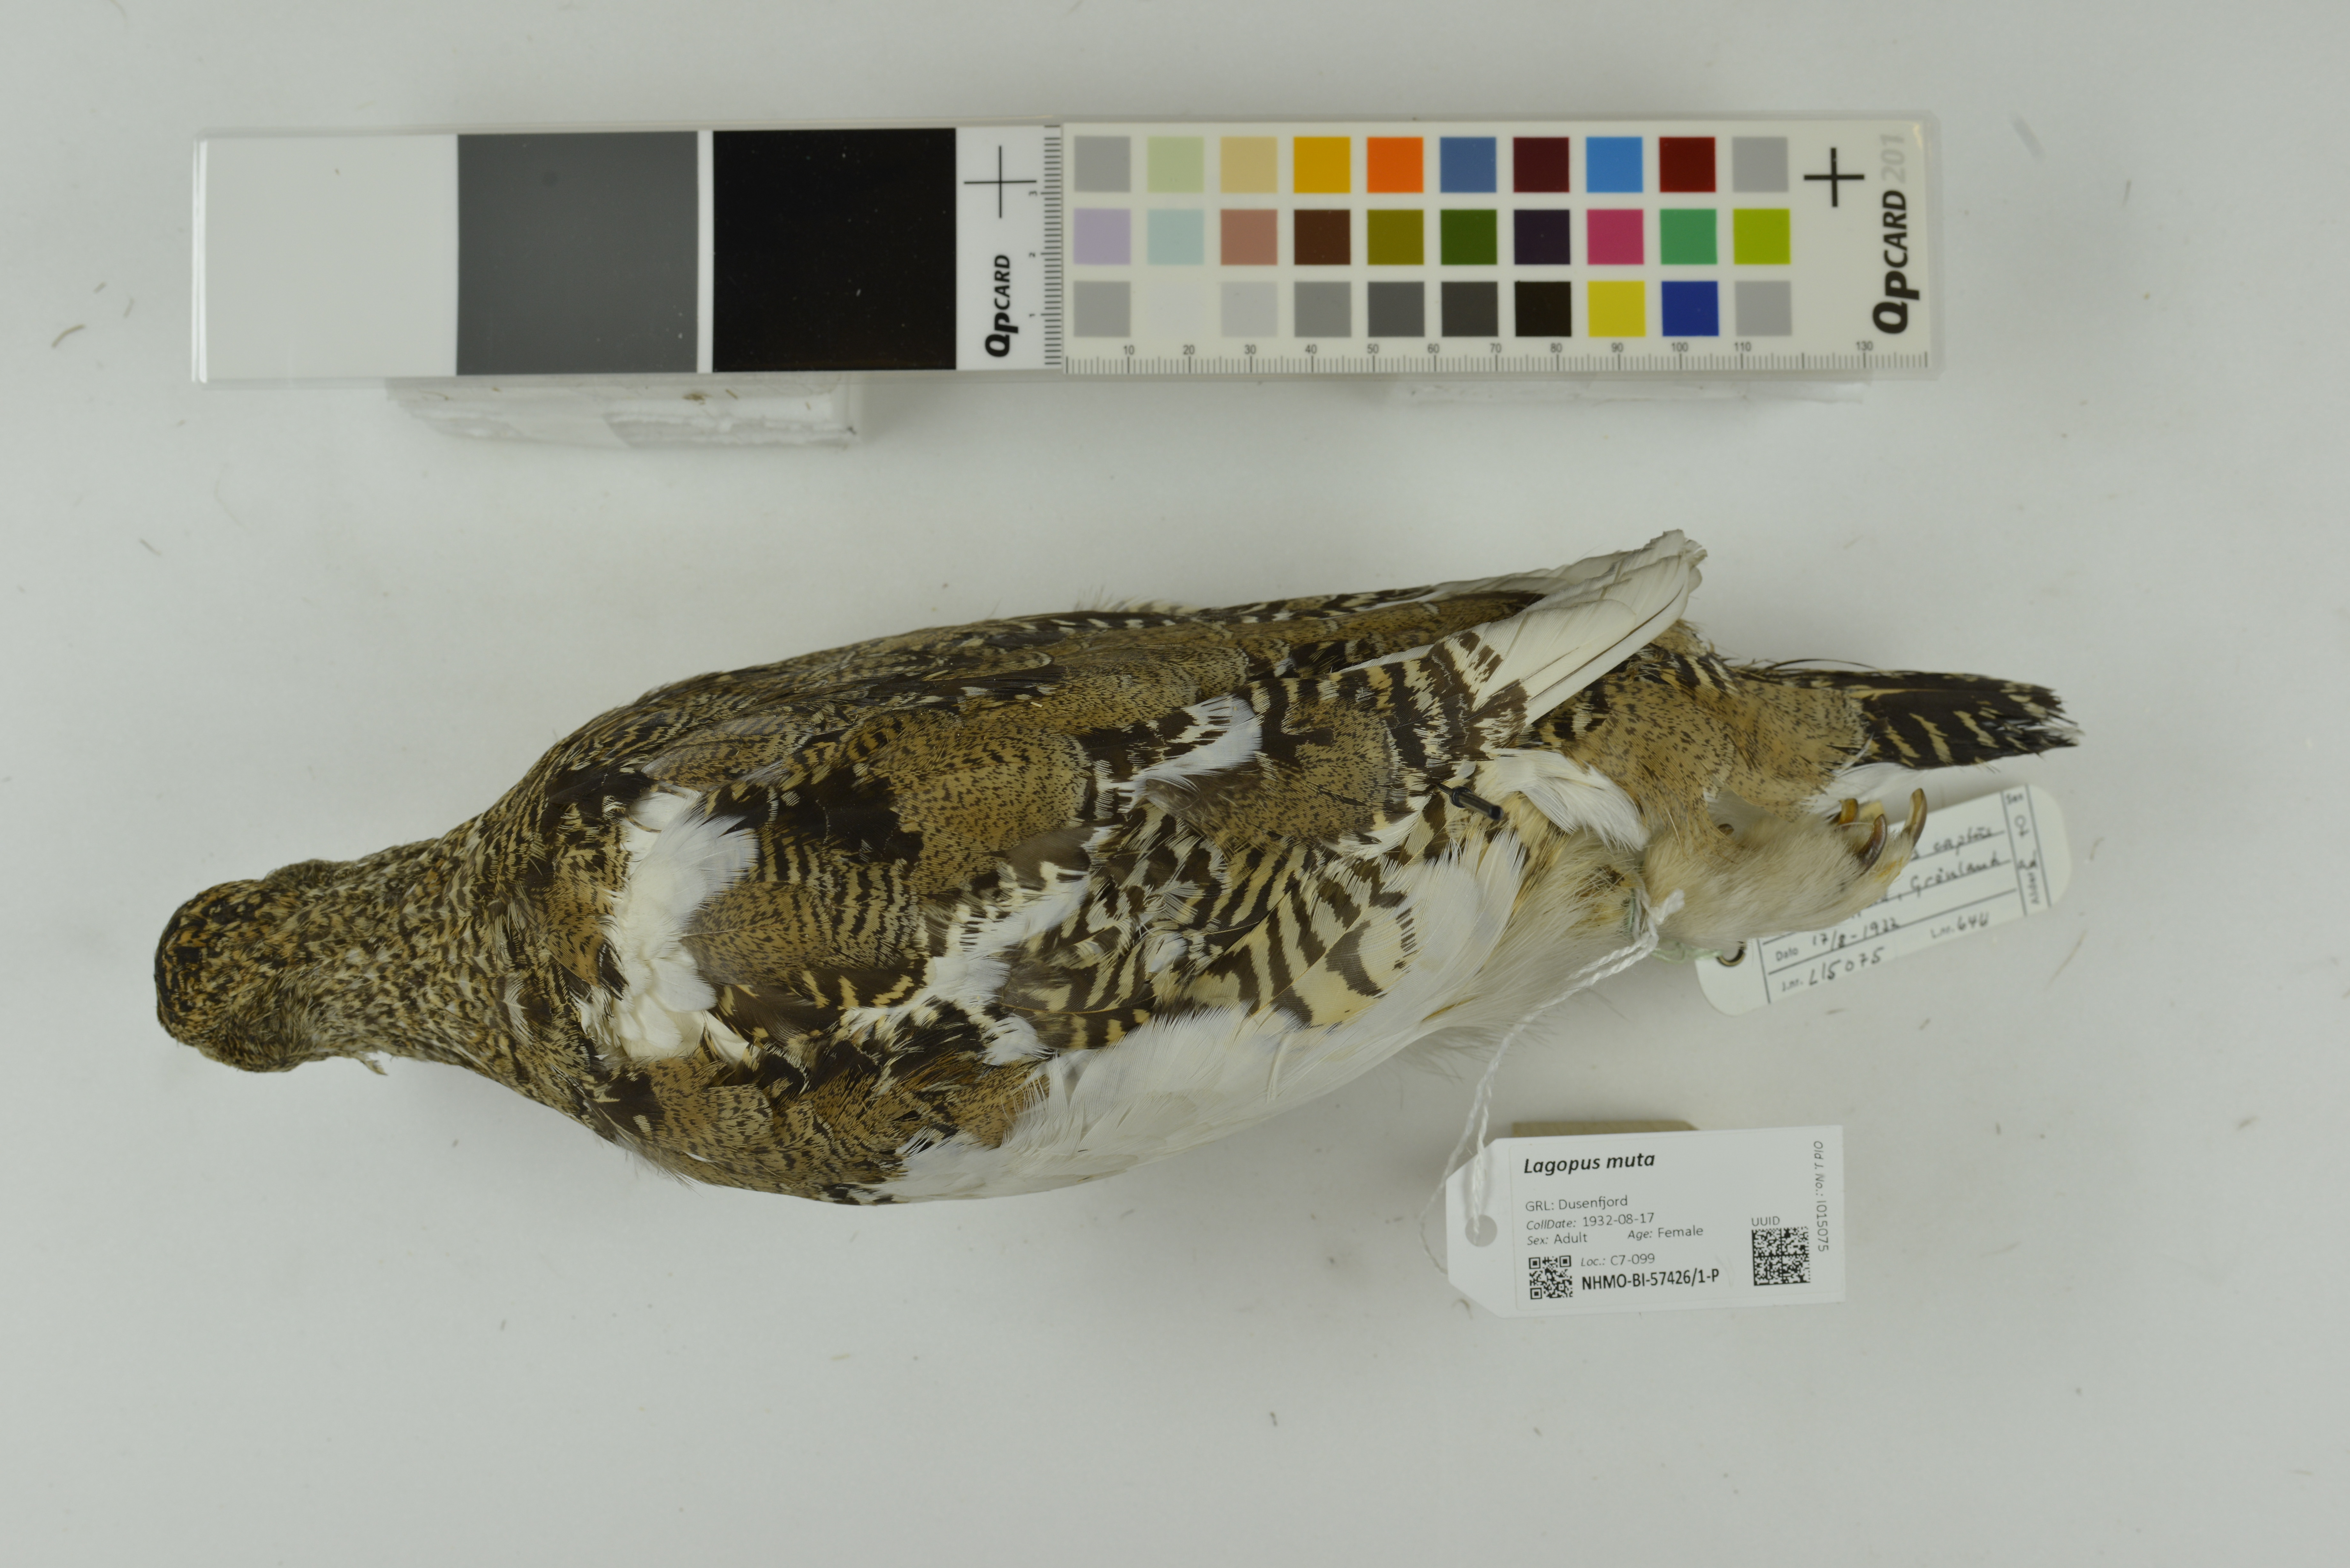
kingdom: Animalia
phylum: Chordata
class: Aves
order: Galliformes
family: Phasianidae
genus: Lagopus
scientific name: Lagopus muta
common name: Rock ptarmigan
